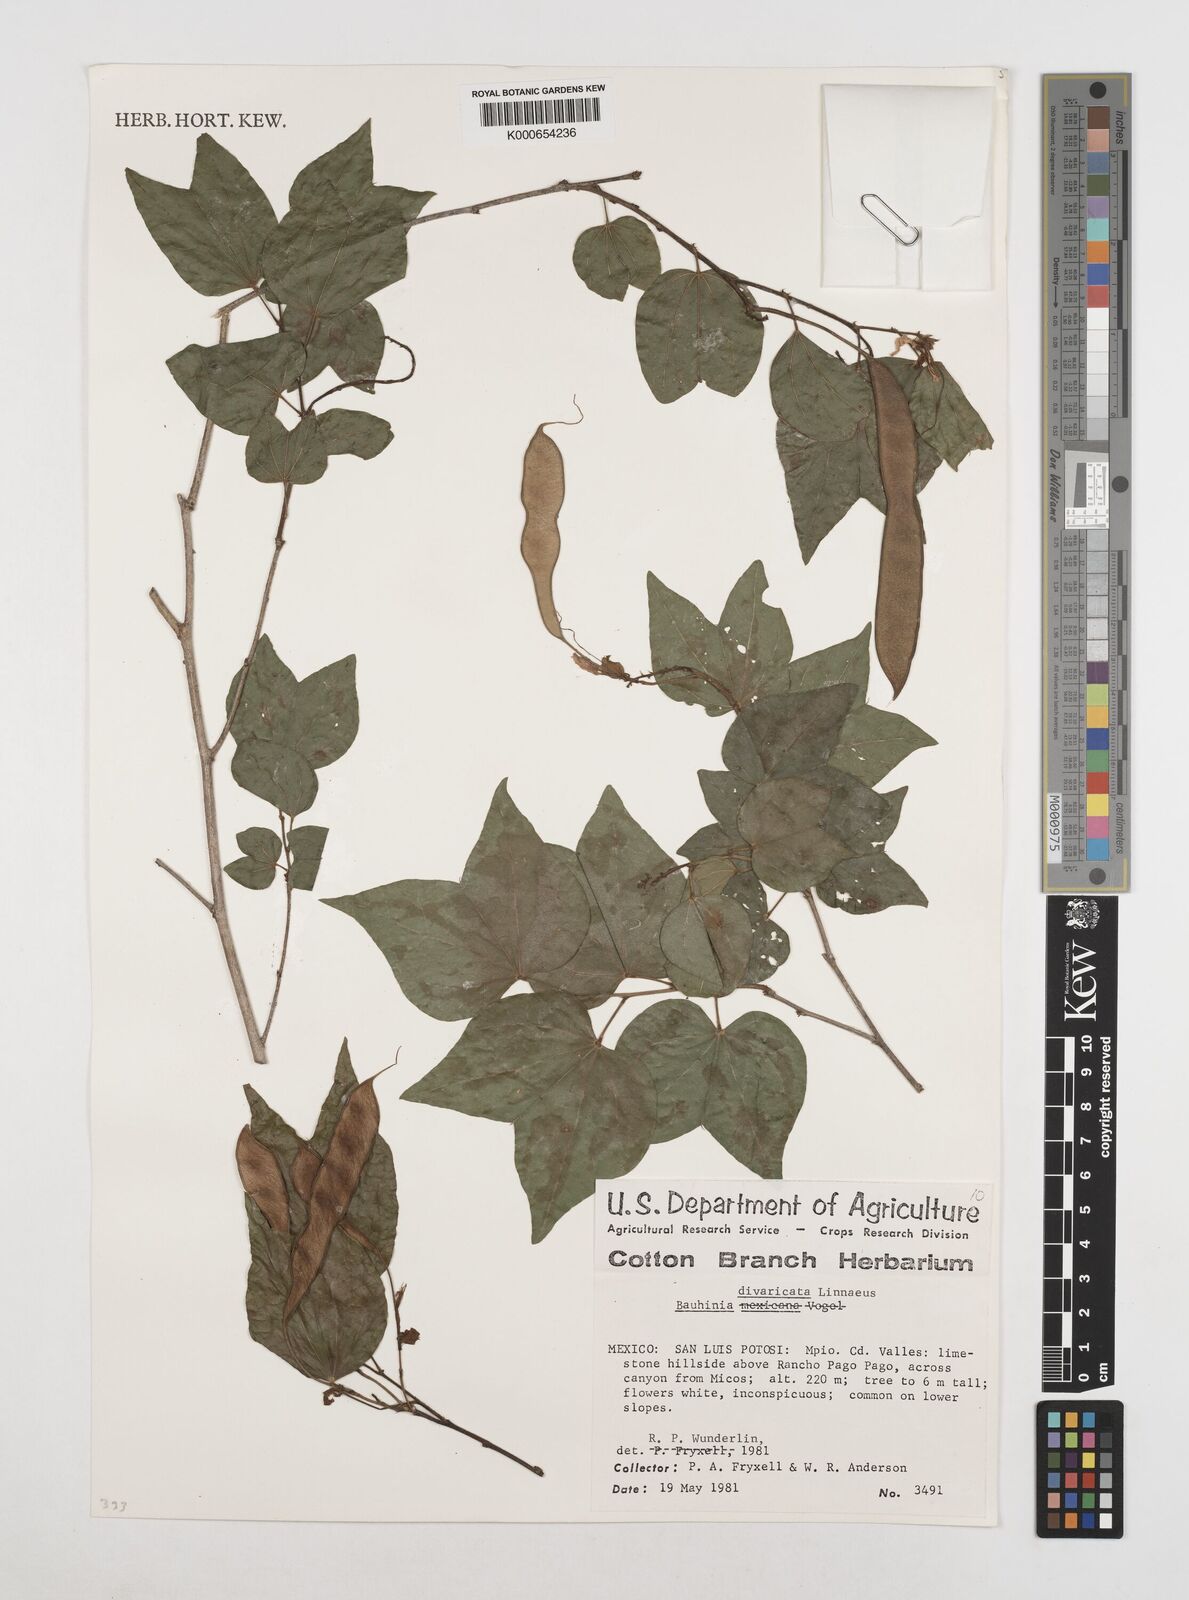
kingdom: Plantae
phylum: Tracheophyta
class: Magnoliopsida
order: Fabales
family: Fabaceae
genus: Bauhinia
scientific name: Bauhinia divaricata
